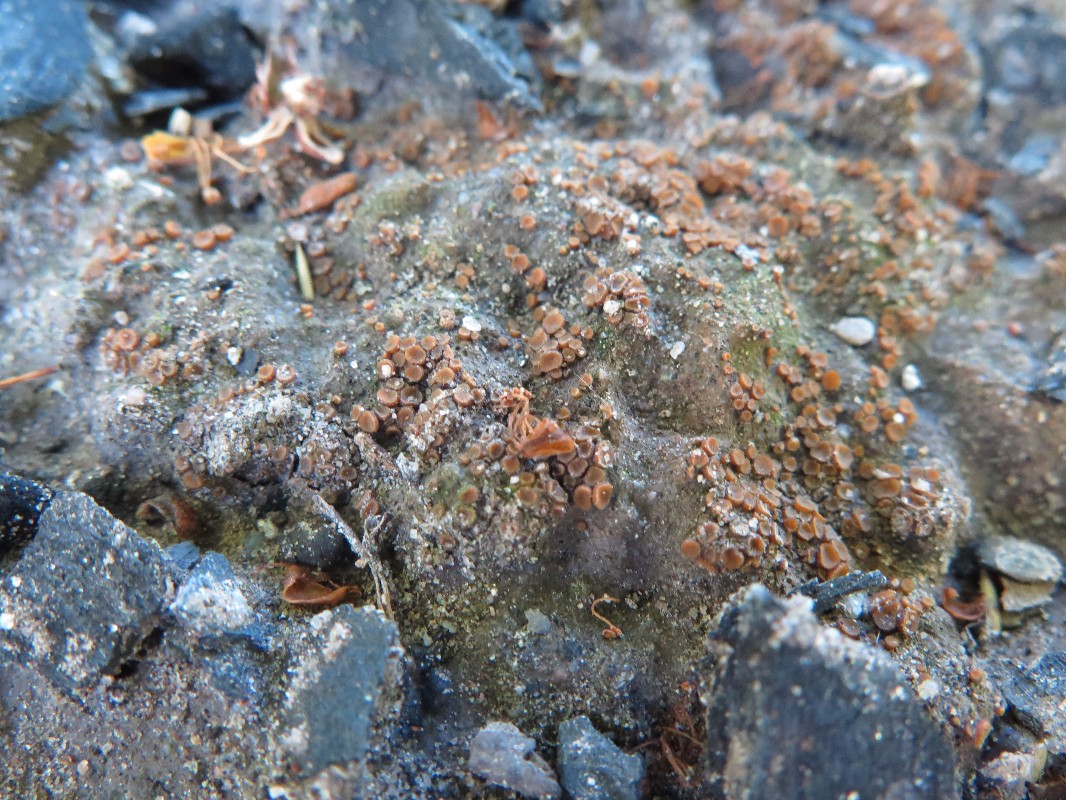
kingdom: Fungi
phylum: Ascomycota
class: Pezizomycetes
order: Pezizales
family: Pyronemataceae
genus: Anthracobia
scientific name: Anthracobia melaloma
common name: flamme-ildbæger
